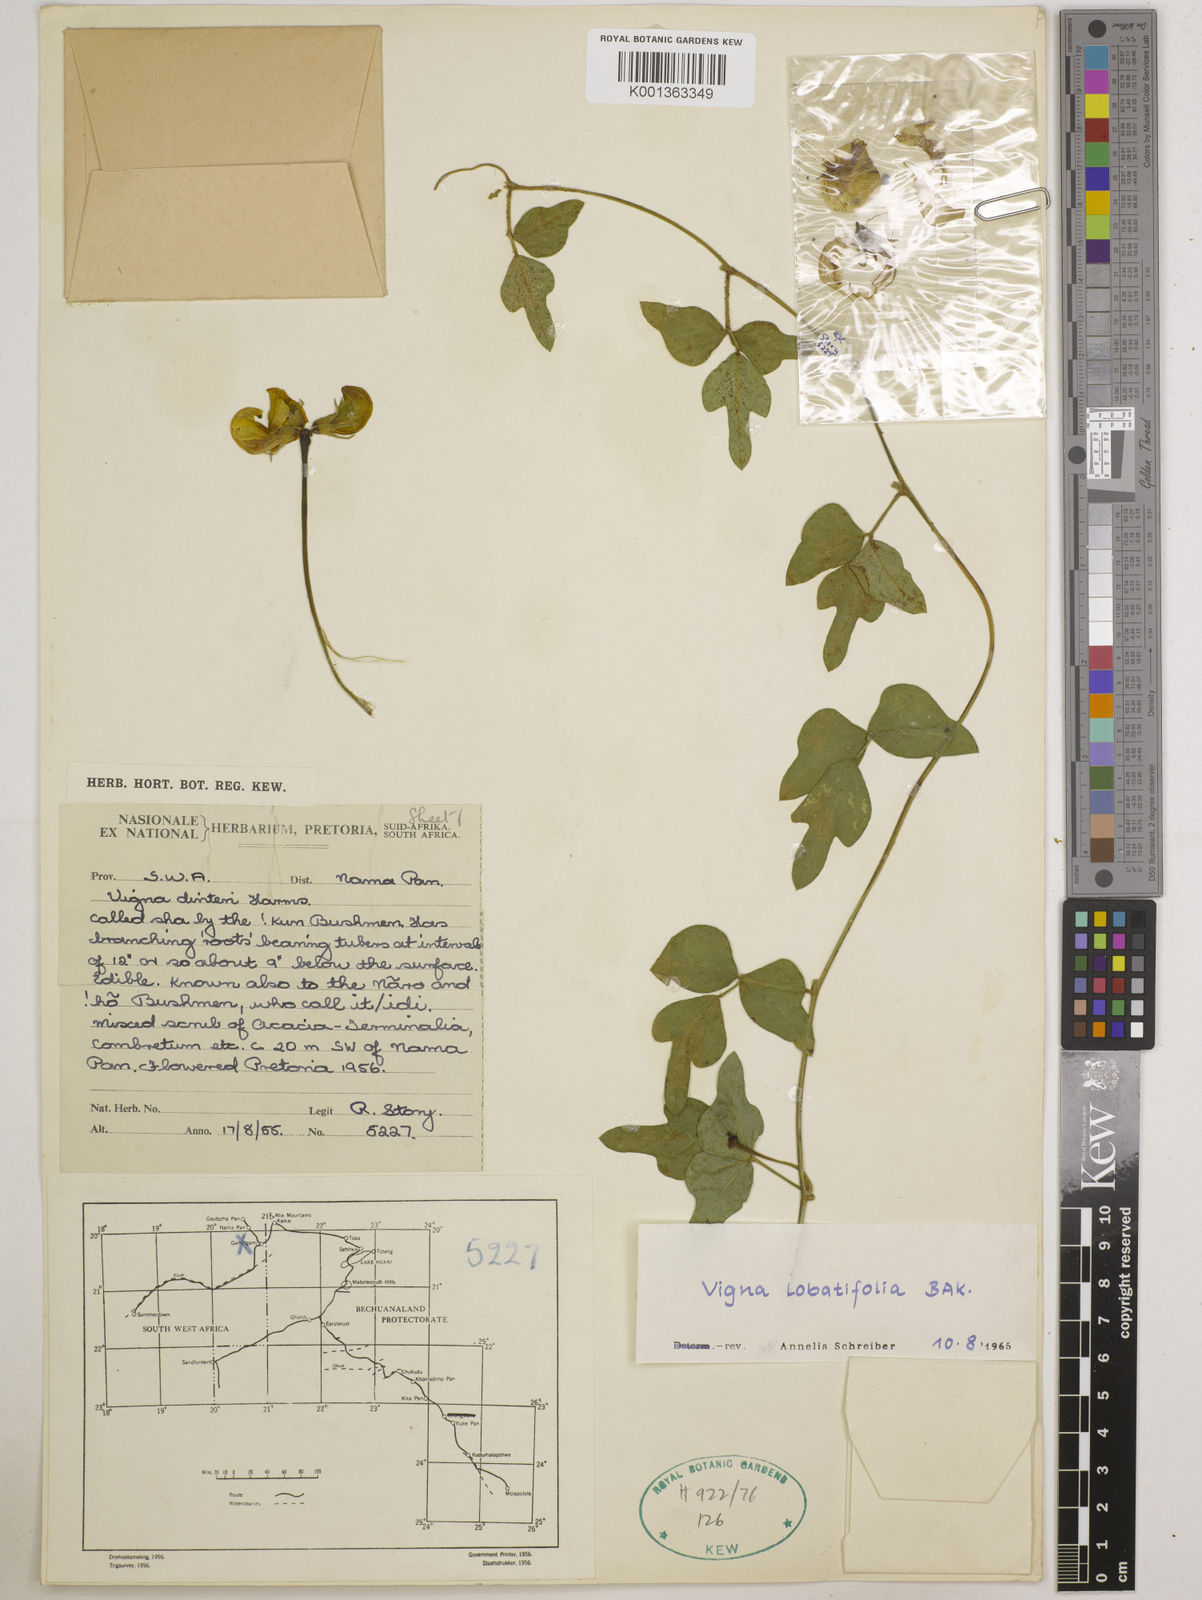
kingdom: Plantae
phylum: Tracheophyta
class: Magnoliopsida
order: Fabales
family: Fabaceae
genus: Vigna
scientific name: Vigna lobatifolia
